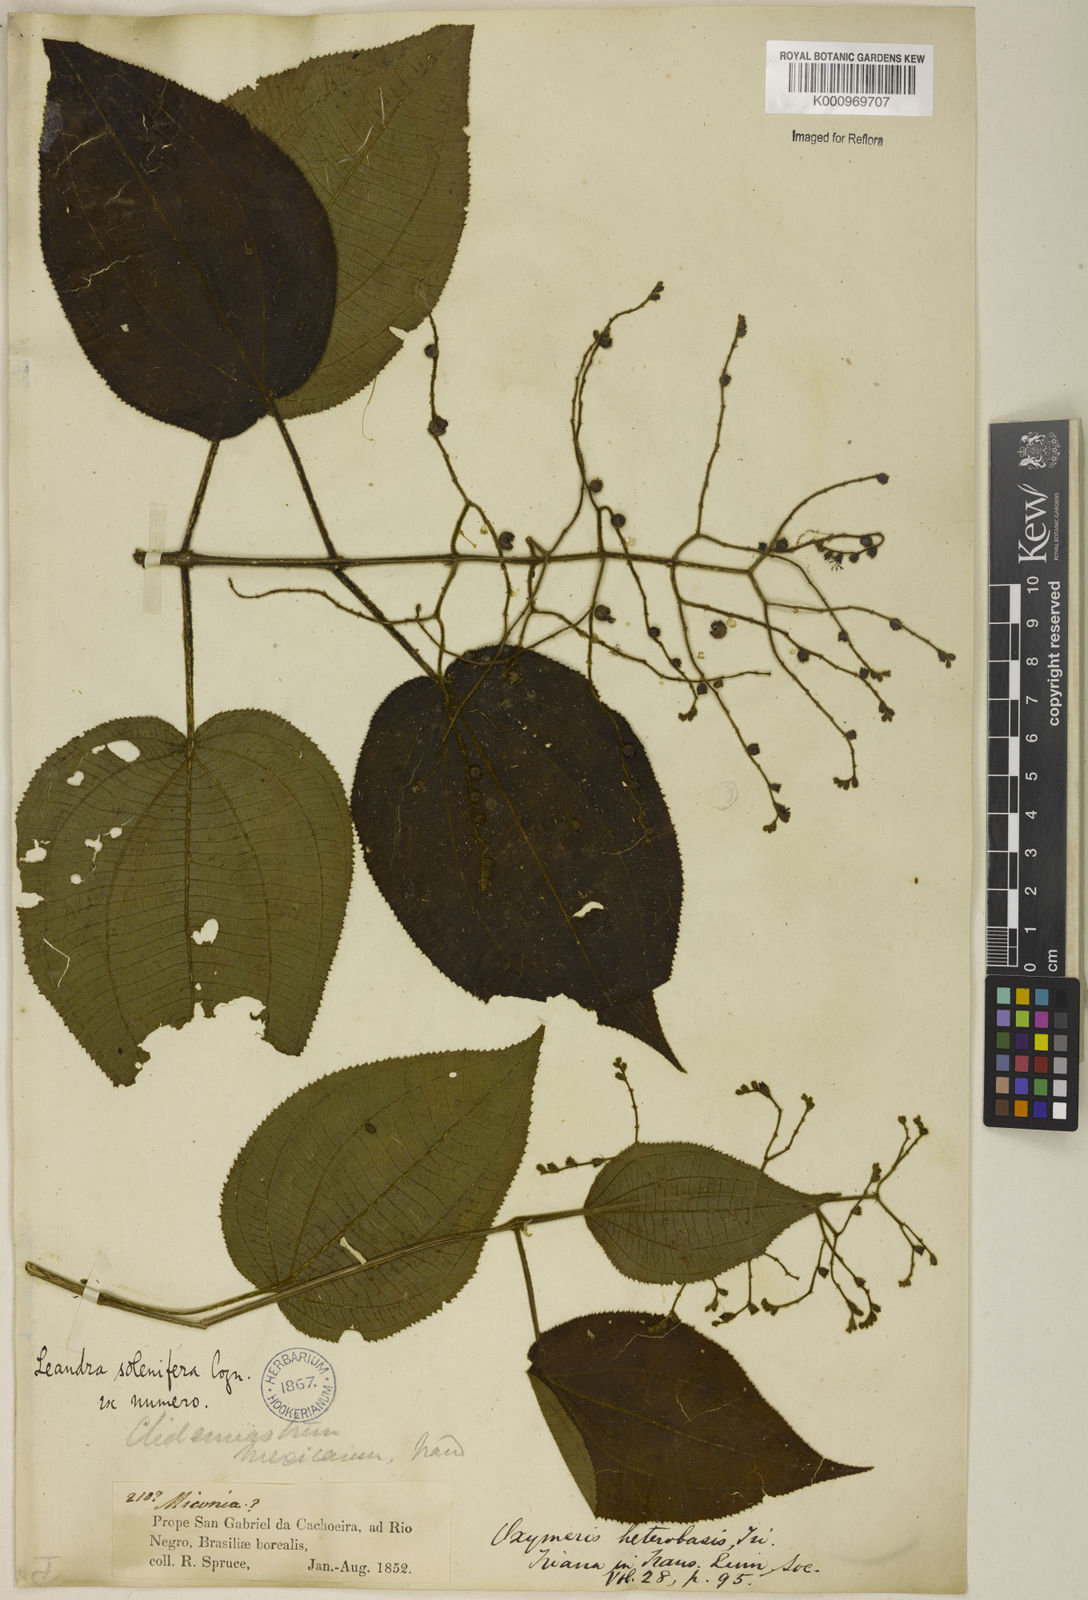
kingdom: Plantae
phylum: Tracheophyta
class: Magnoliopsida
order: Myrtales
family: Melastomataceae
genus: Miconia
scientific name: Miconia solenifera
